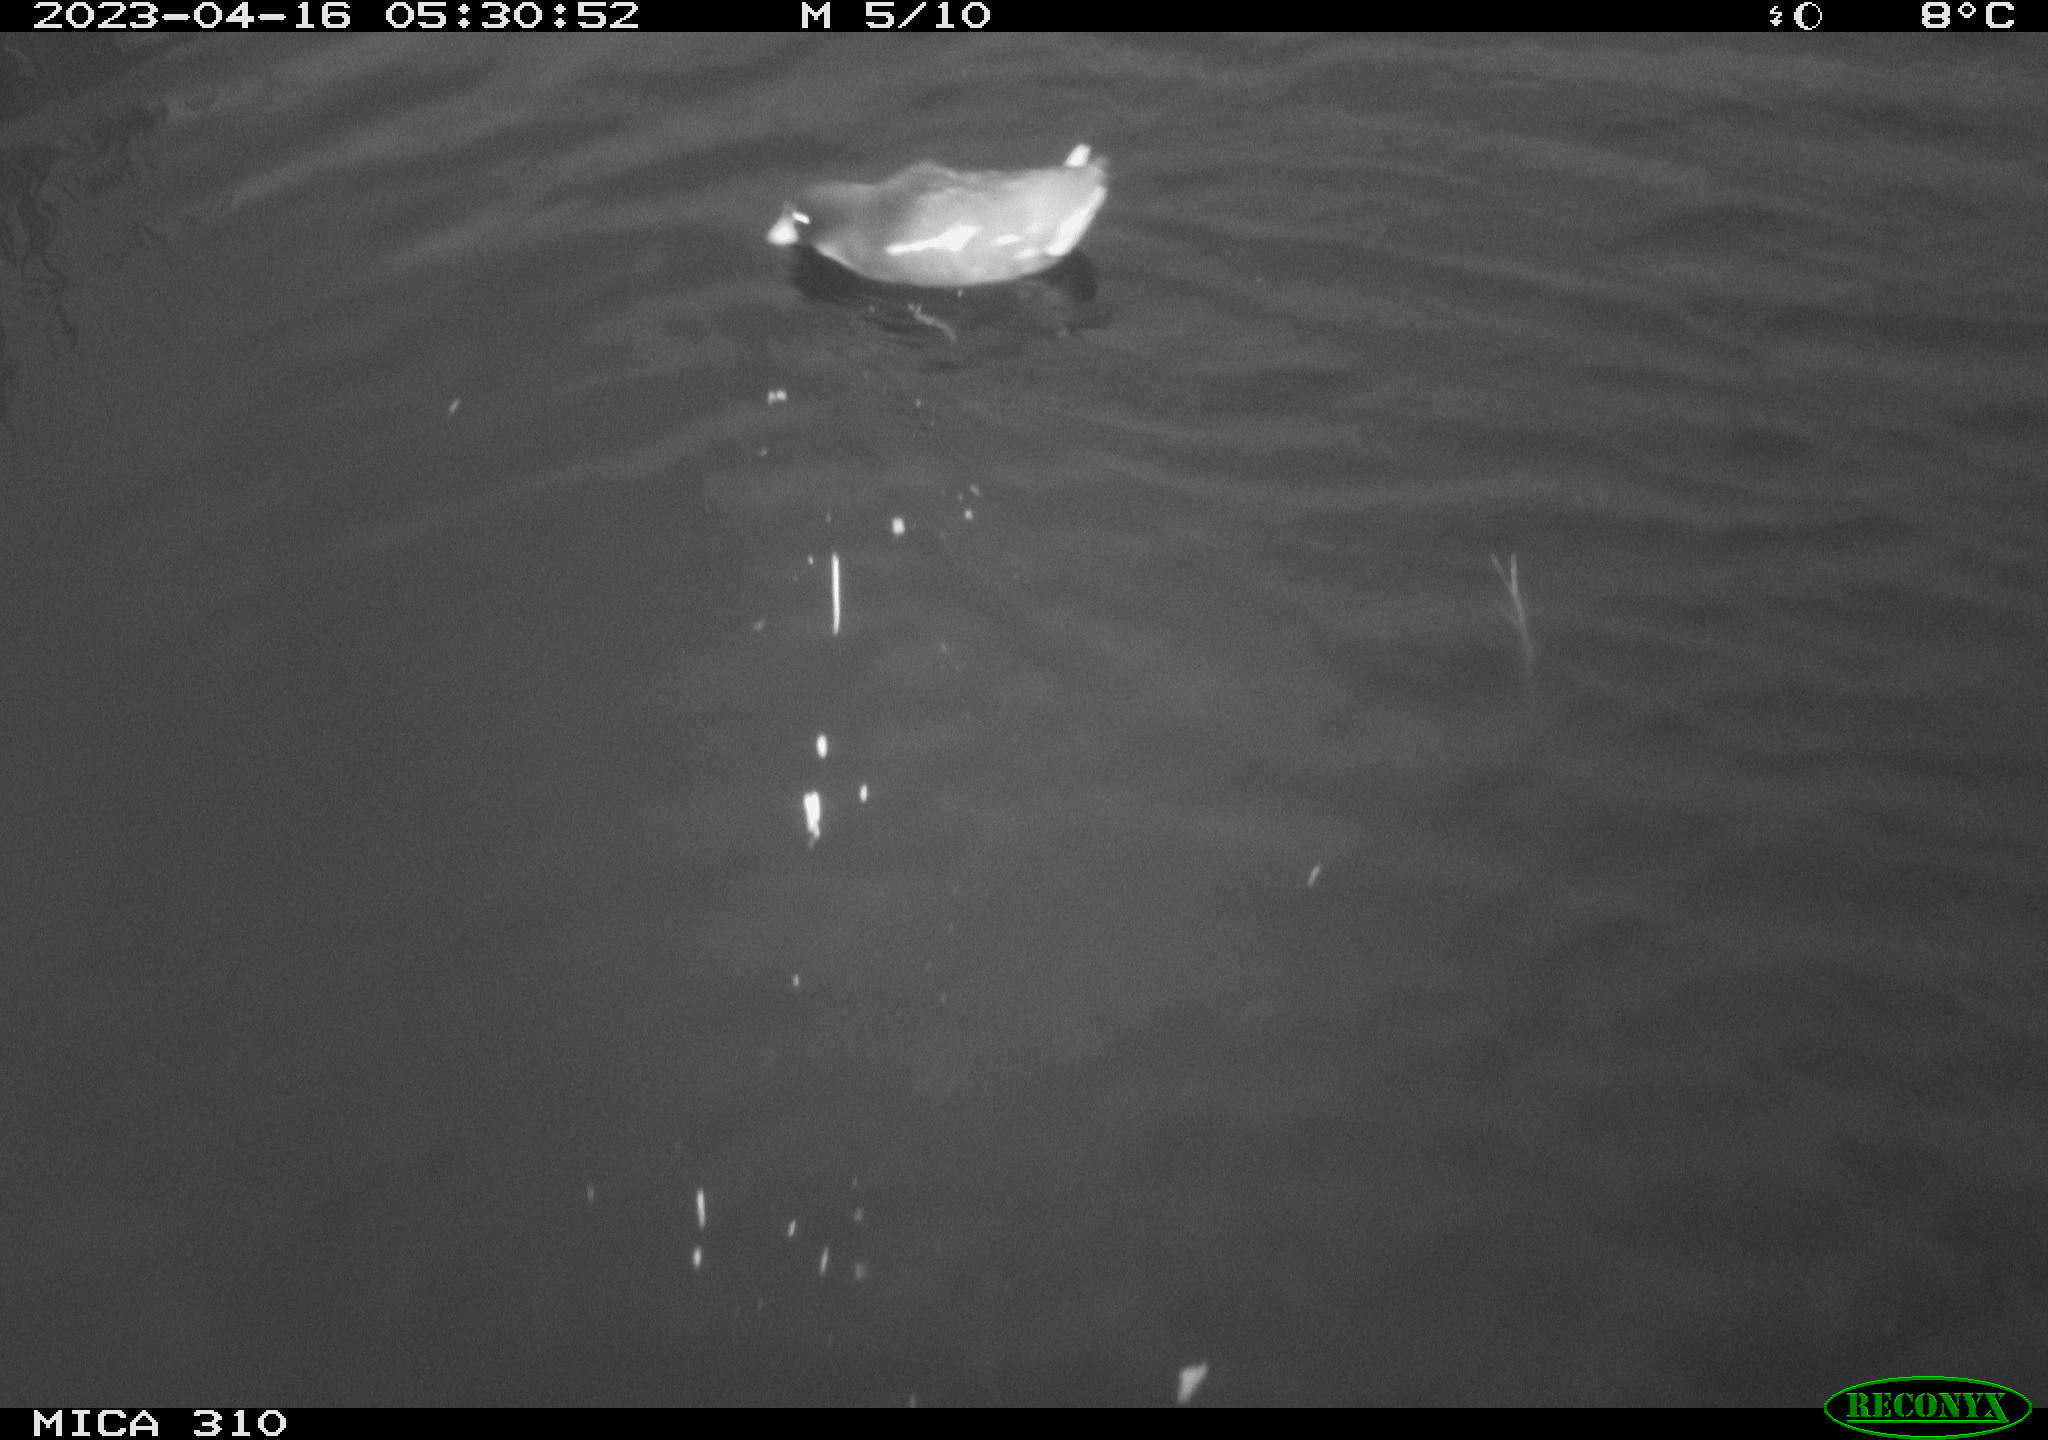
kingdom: Animalia
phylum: Chordata
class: Aves
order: Gruiformes
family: Rallidae
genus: Gallinula
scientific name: Gallinula chloropus
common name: Common moorhen
